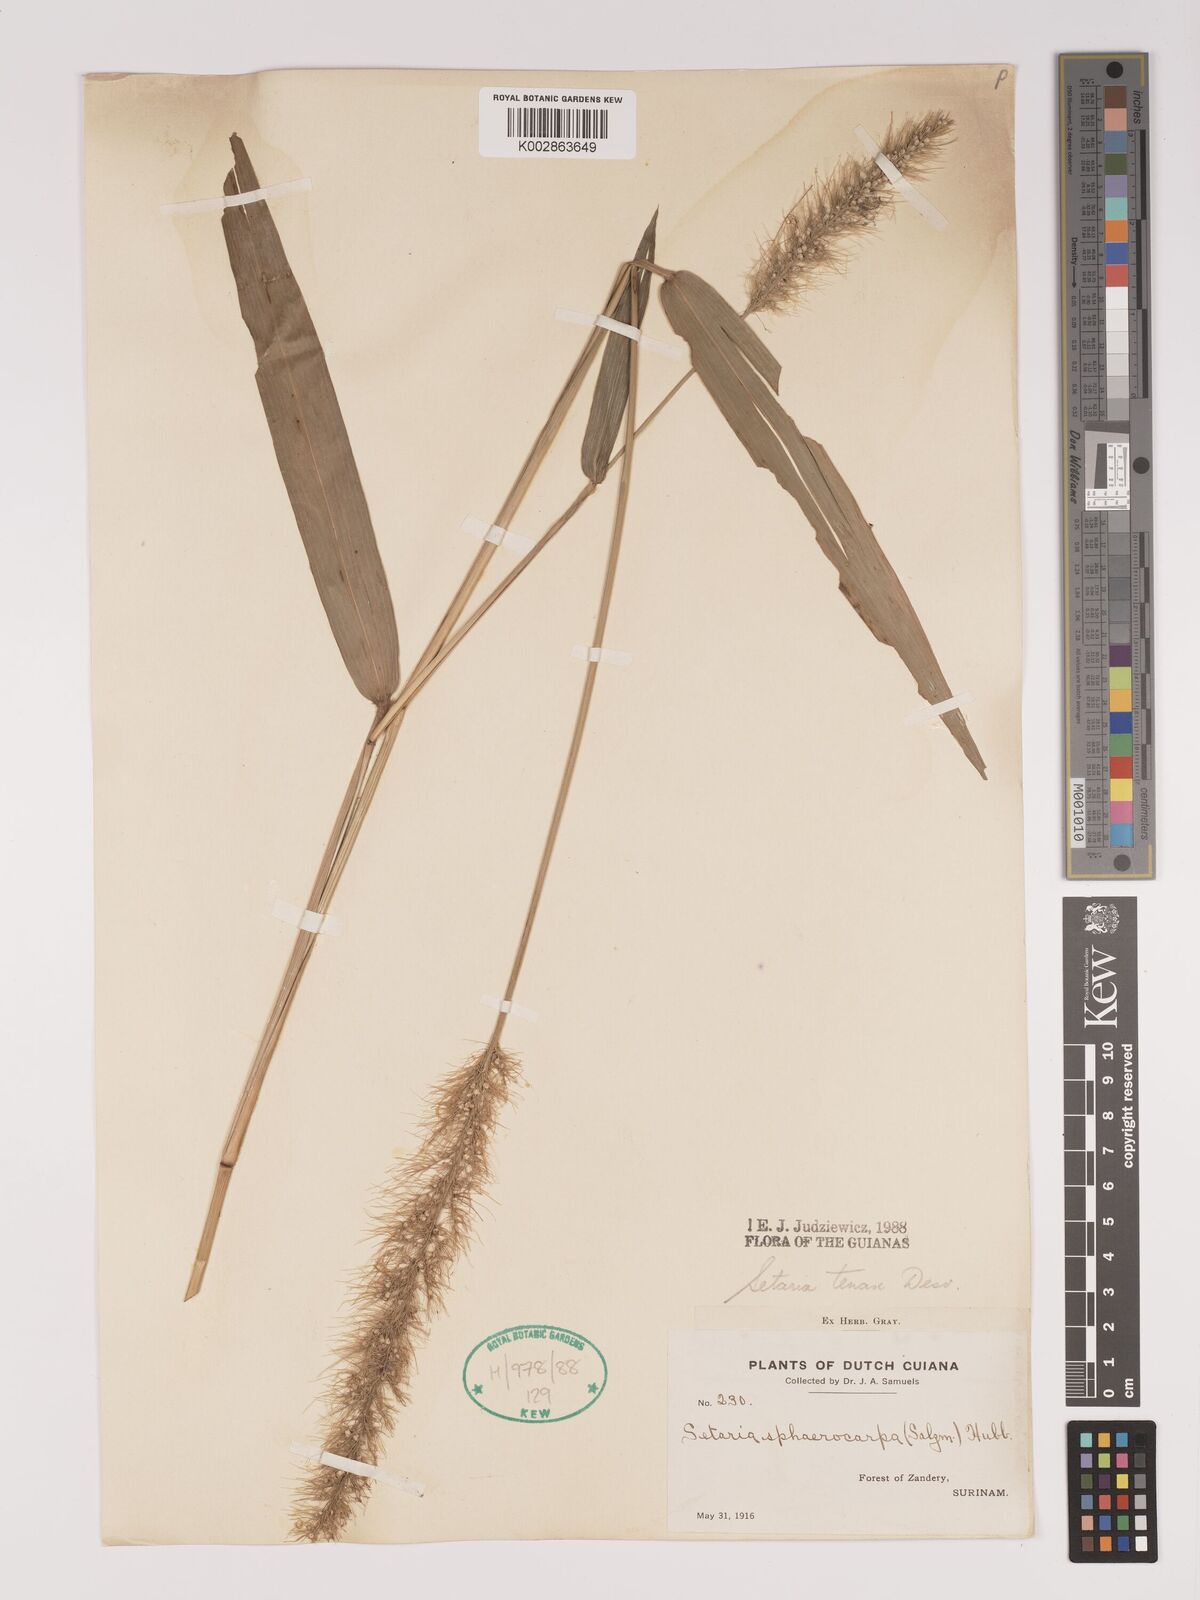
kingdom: Plantae
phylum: Tracheophyta
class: Liliopsida
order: Poales
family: Poaceae
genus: Setaria
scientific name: Setaria tenax
